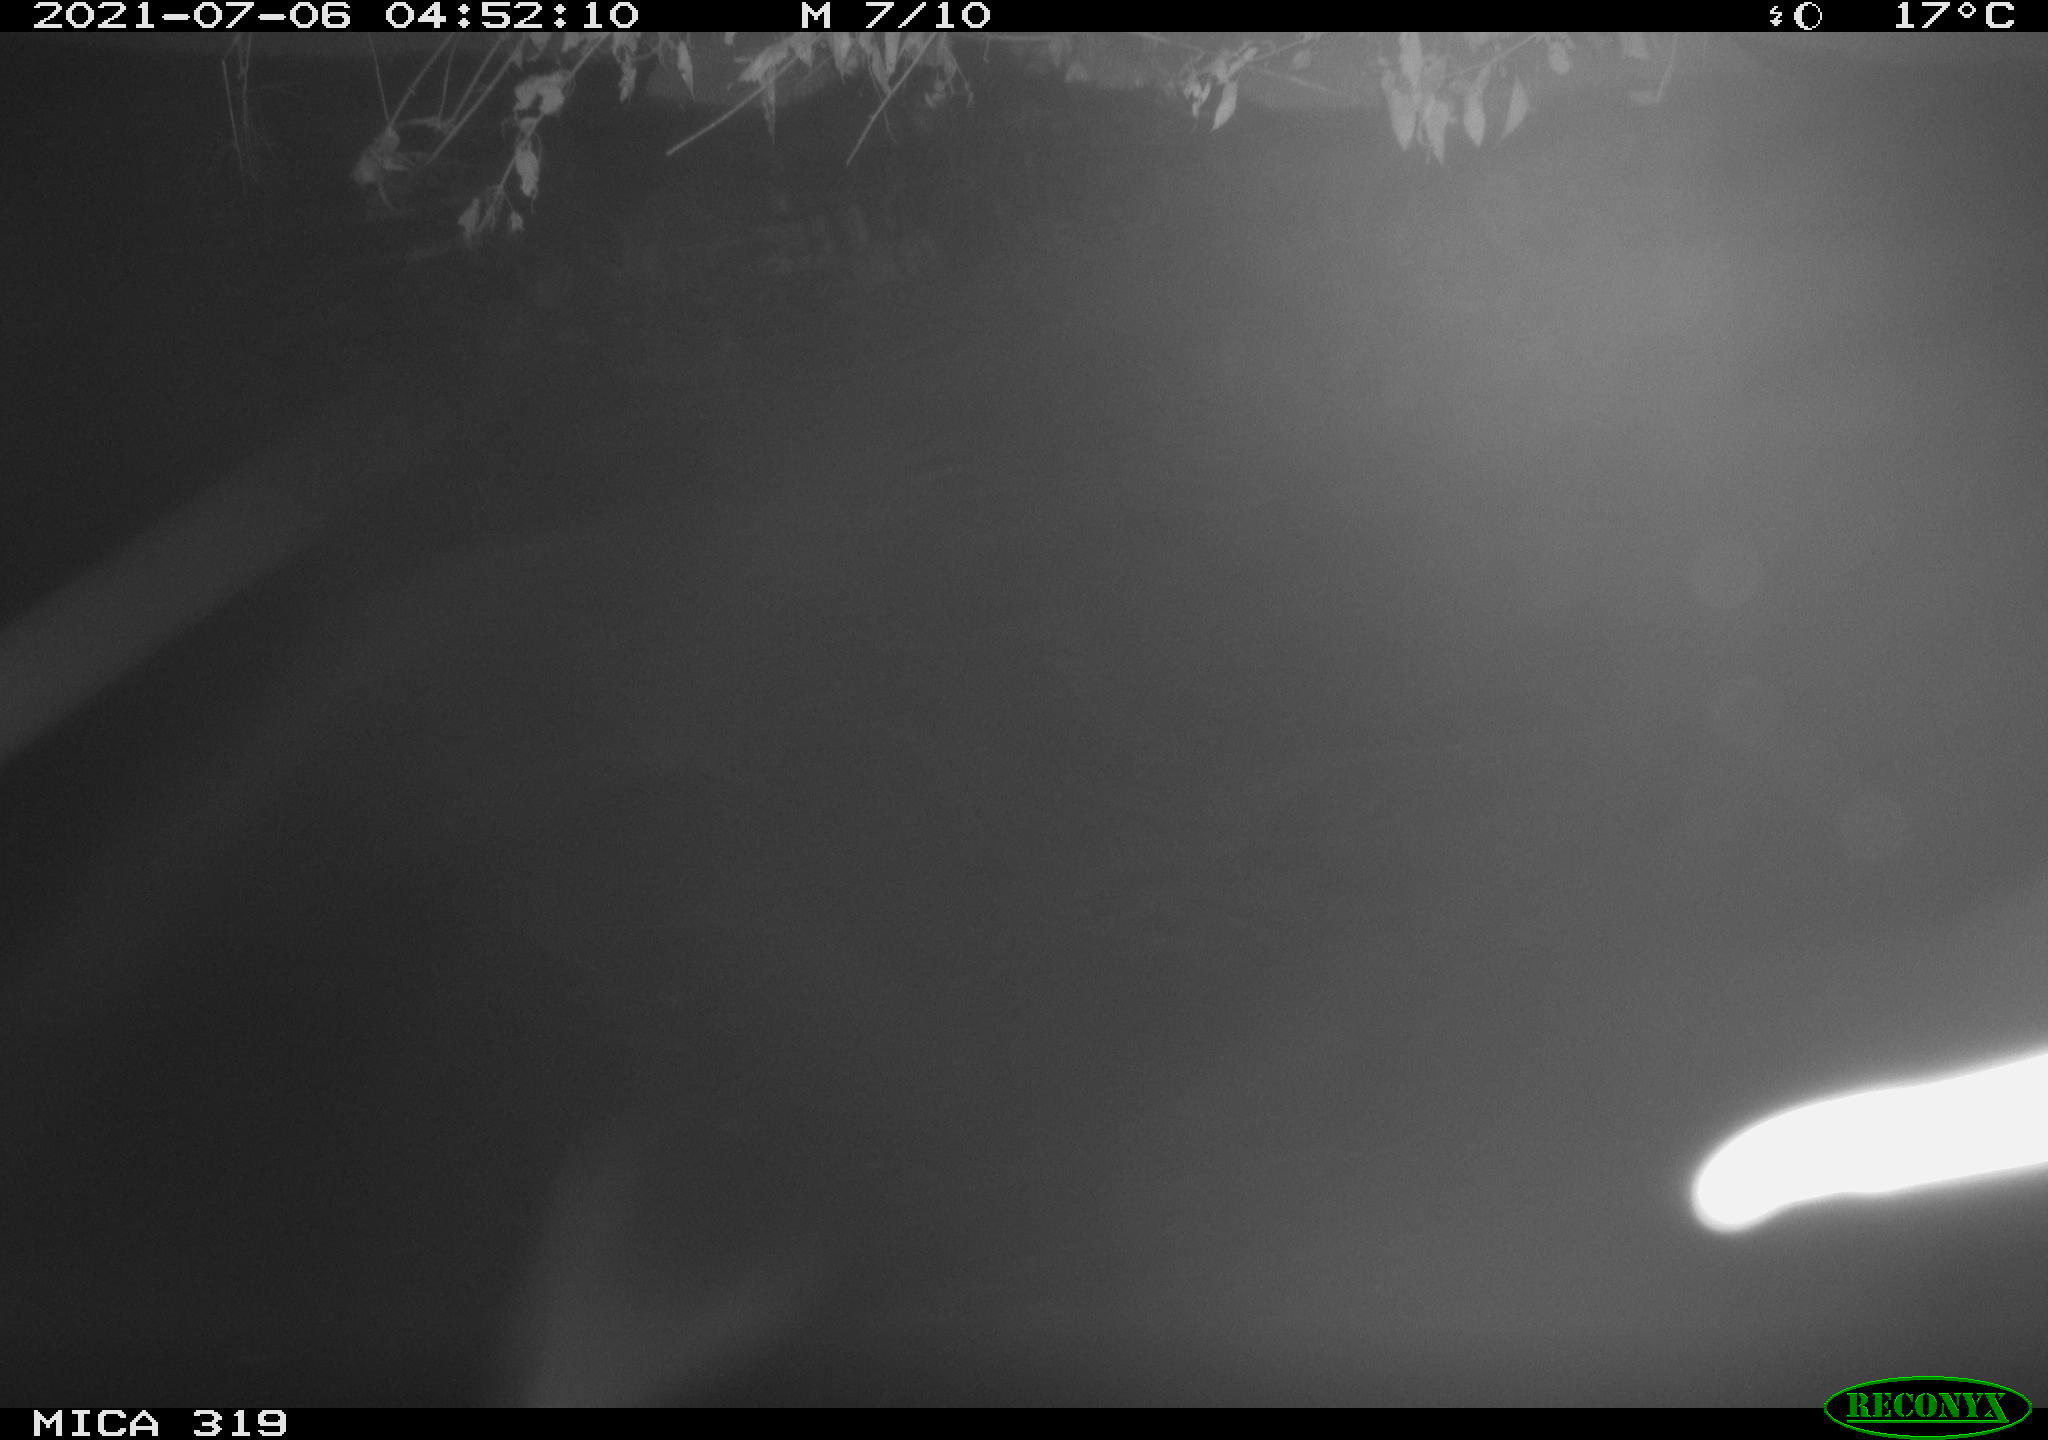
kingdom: Animalia
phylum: Chordata
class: Aves
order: Anseriformes
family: Anatidae
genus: Anas
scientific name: Anas platyrhynchos
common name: Mallard
